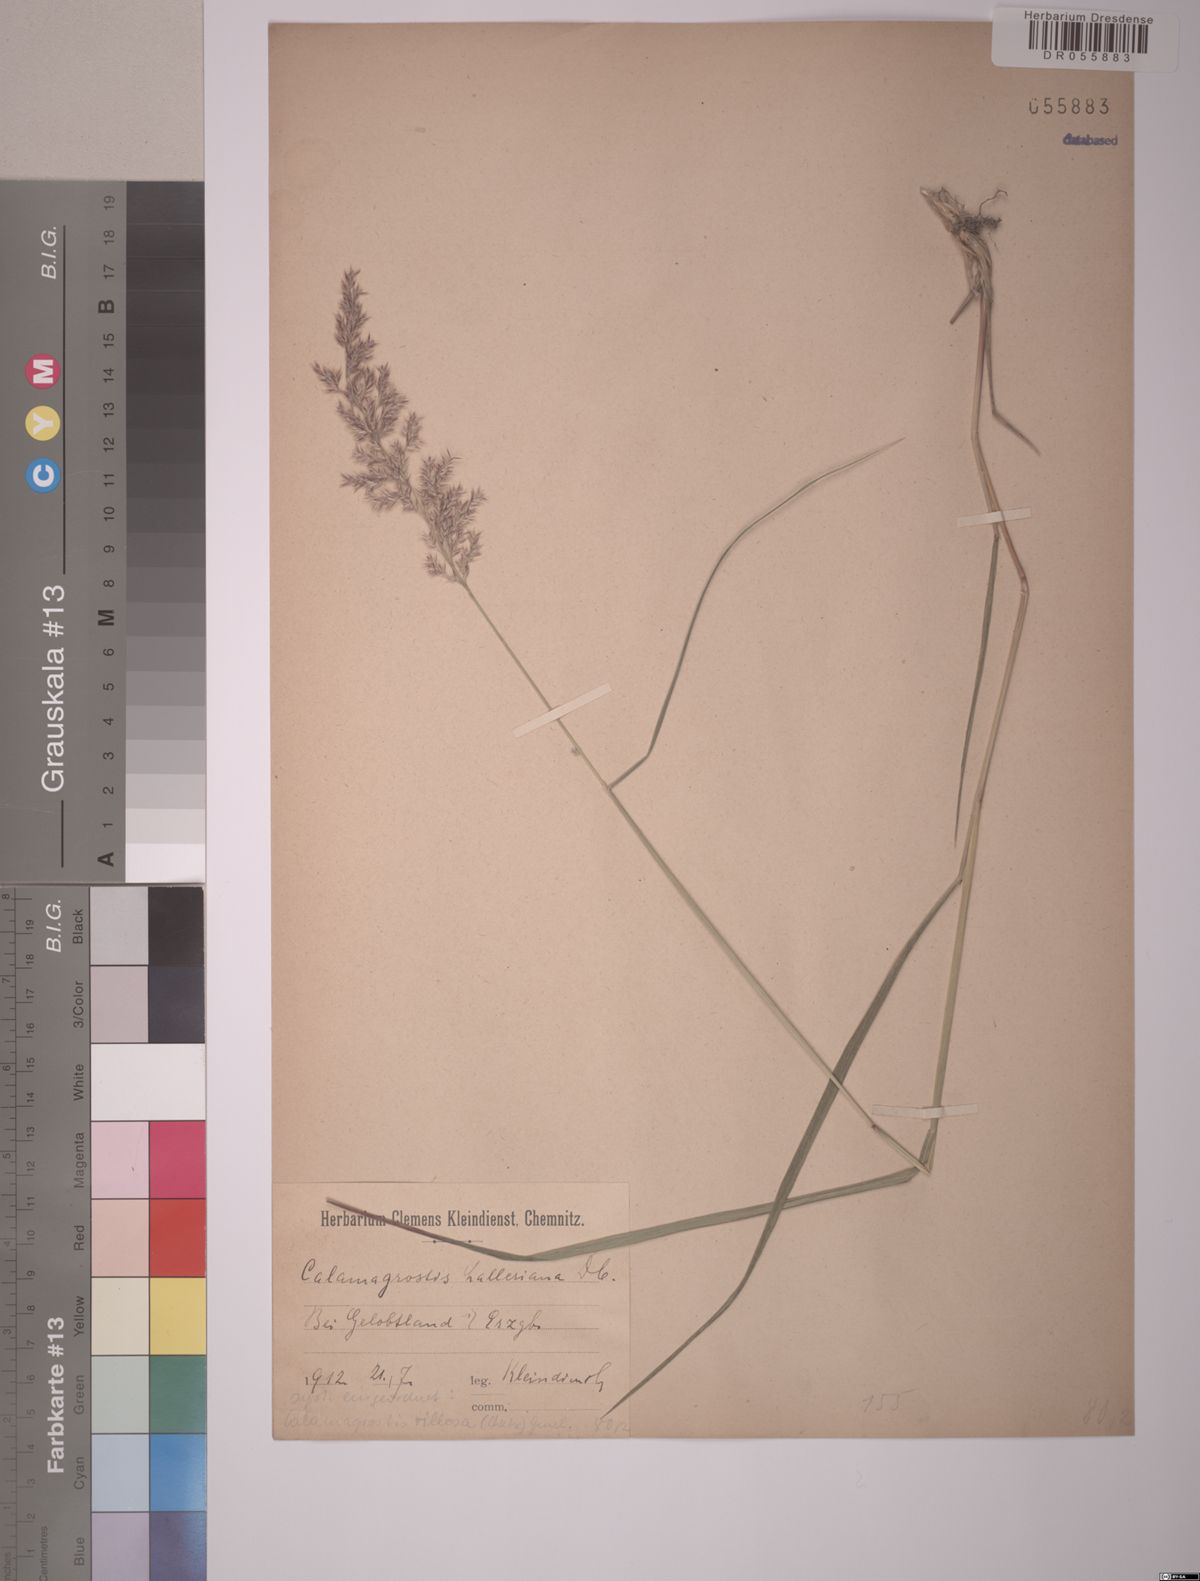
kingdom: Plantae
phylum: Tracheophyta
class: Liliopsida
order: Poales
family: Poaceae
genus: Calamagrostis
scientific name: Calamagrostis villosa
